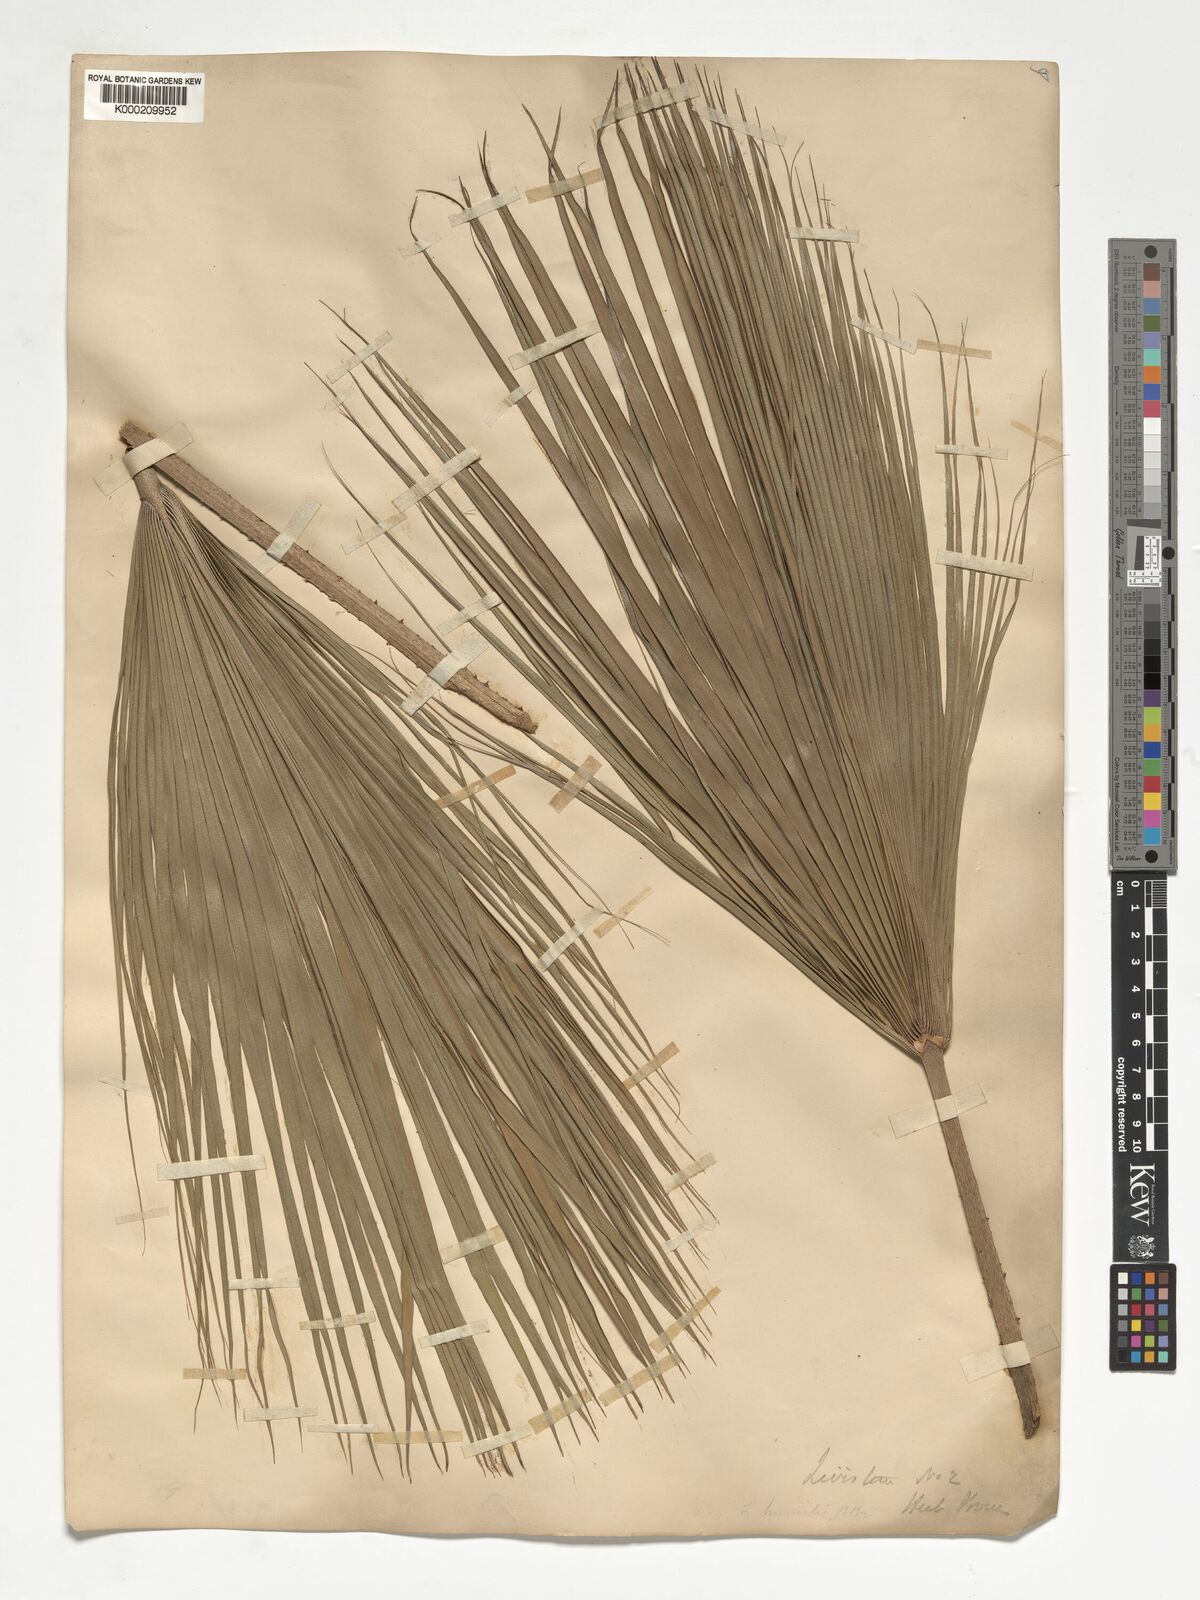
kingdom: Plantae
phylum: Tracheophyta
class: Liliopsida
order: Arecales
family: Arecaceae
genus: Livistona
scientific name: Livistona humilis
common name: Cabbage palm
